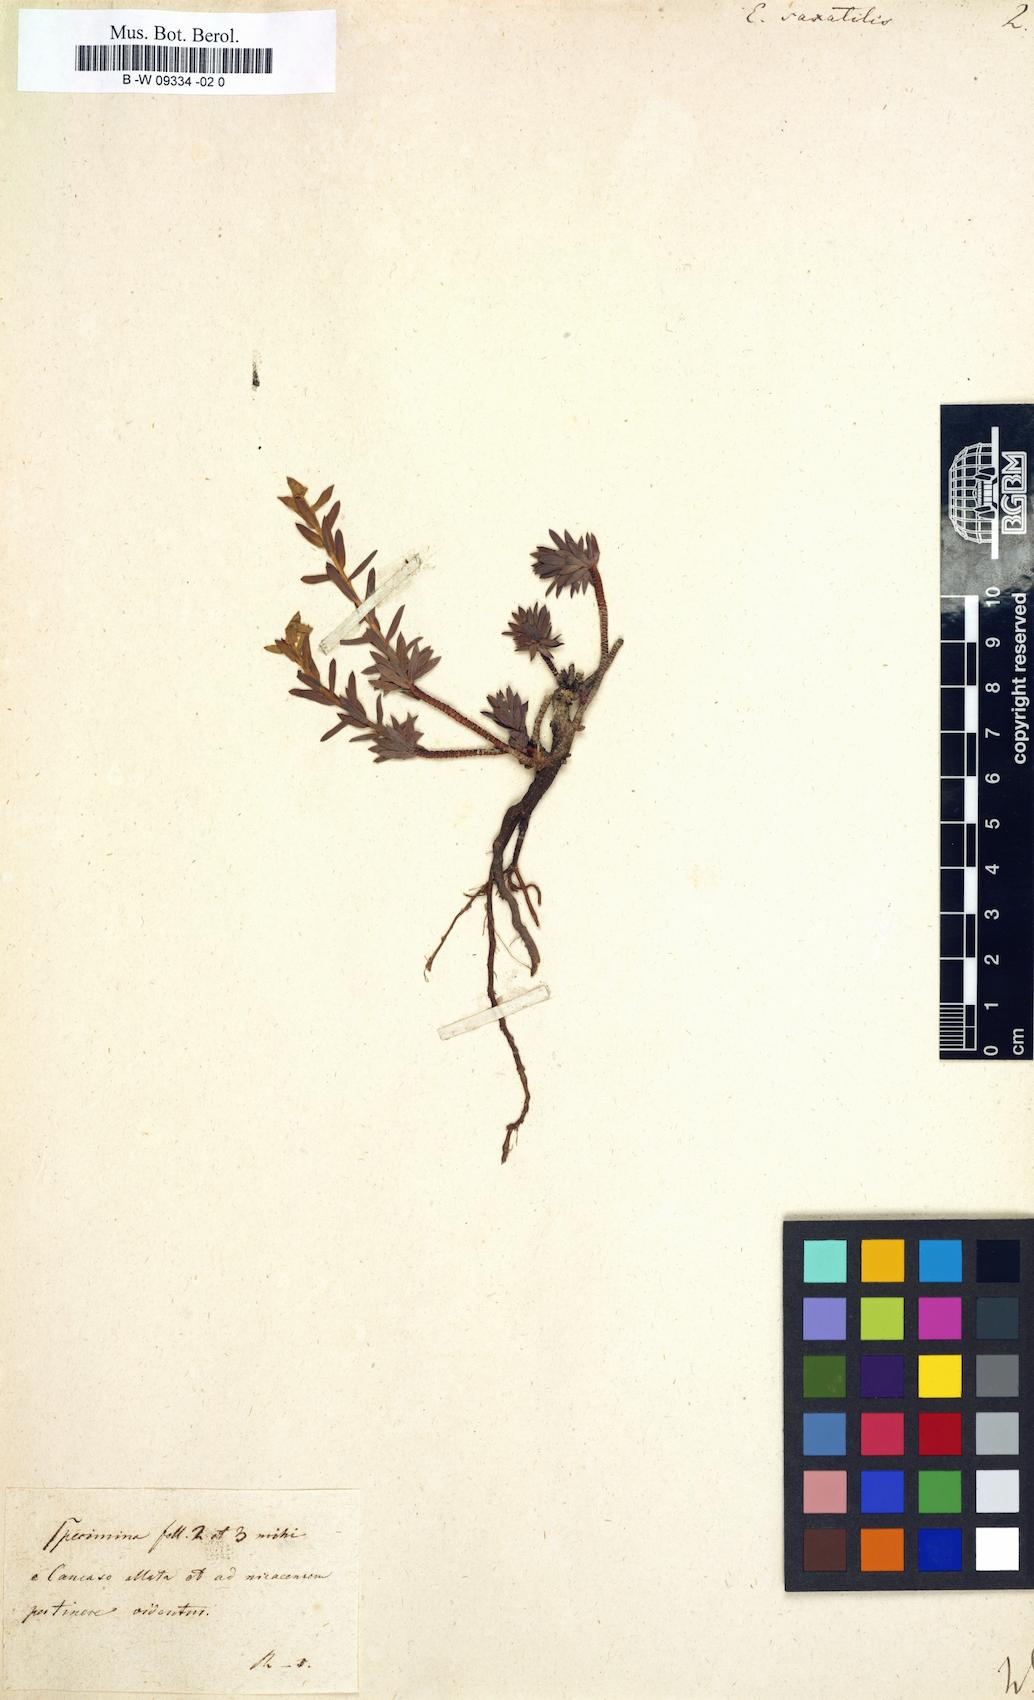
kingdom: Plantae
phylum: Tracheophyta
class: Magnoliopsida
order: Malpighiales
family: Euphorbiaceae
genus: Euphorbia
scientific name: Euphorbia saxatilis
